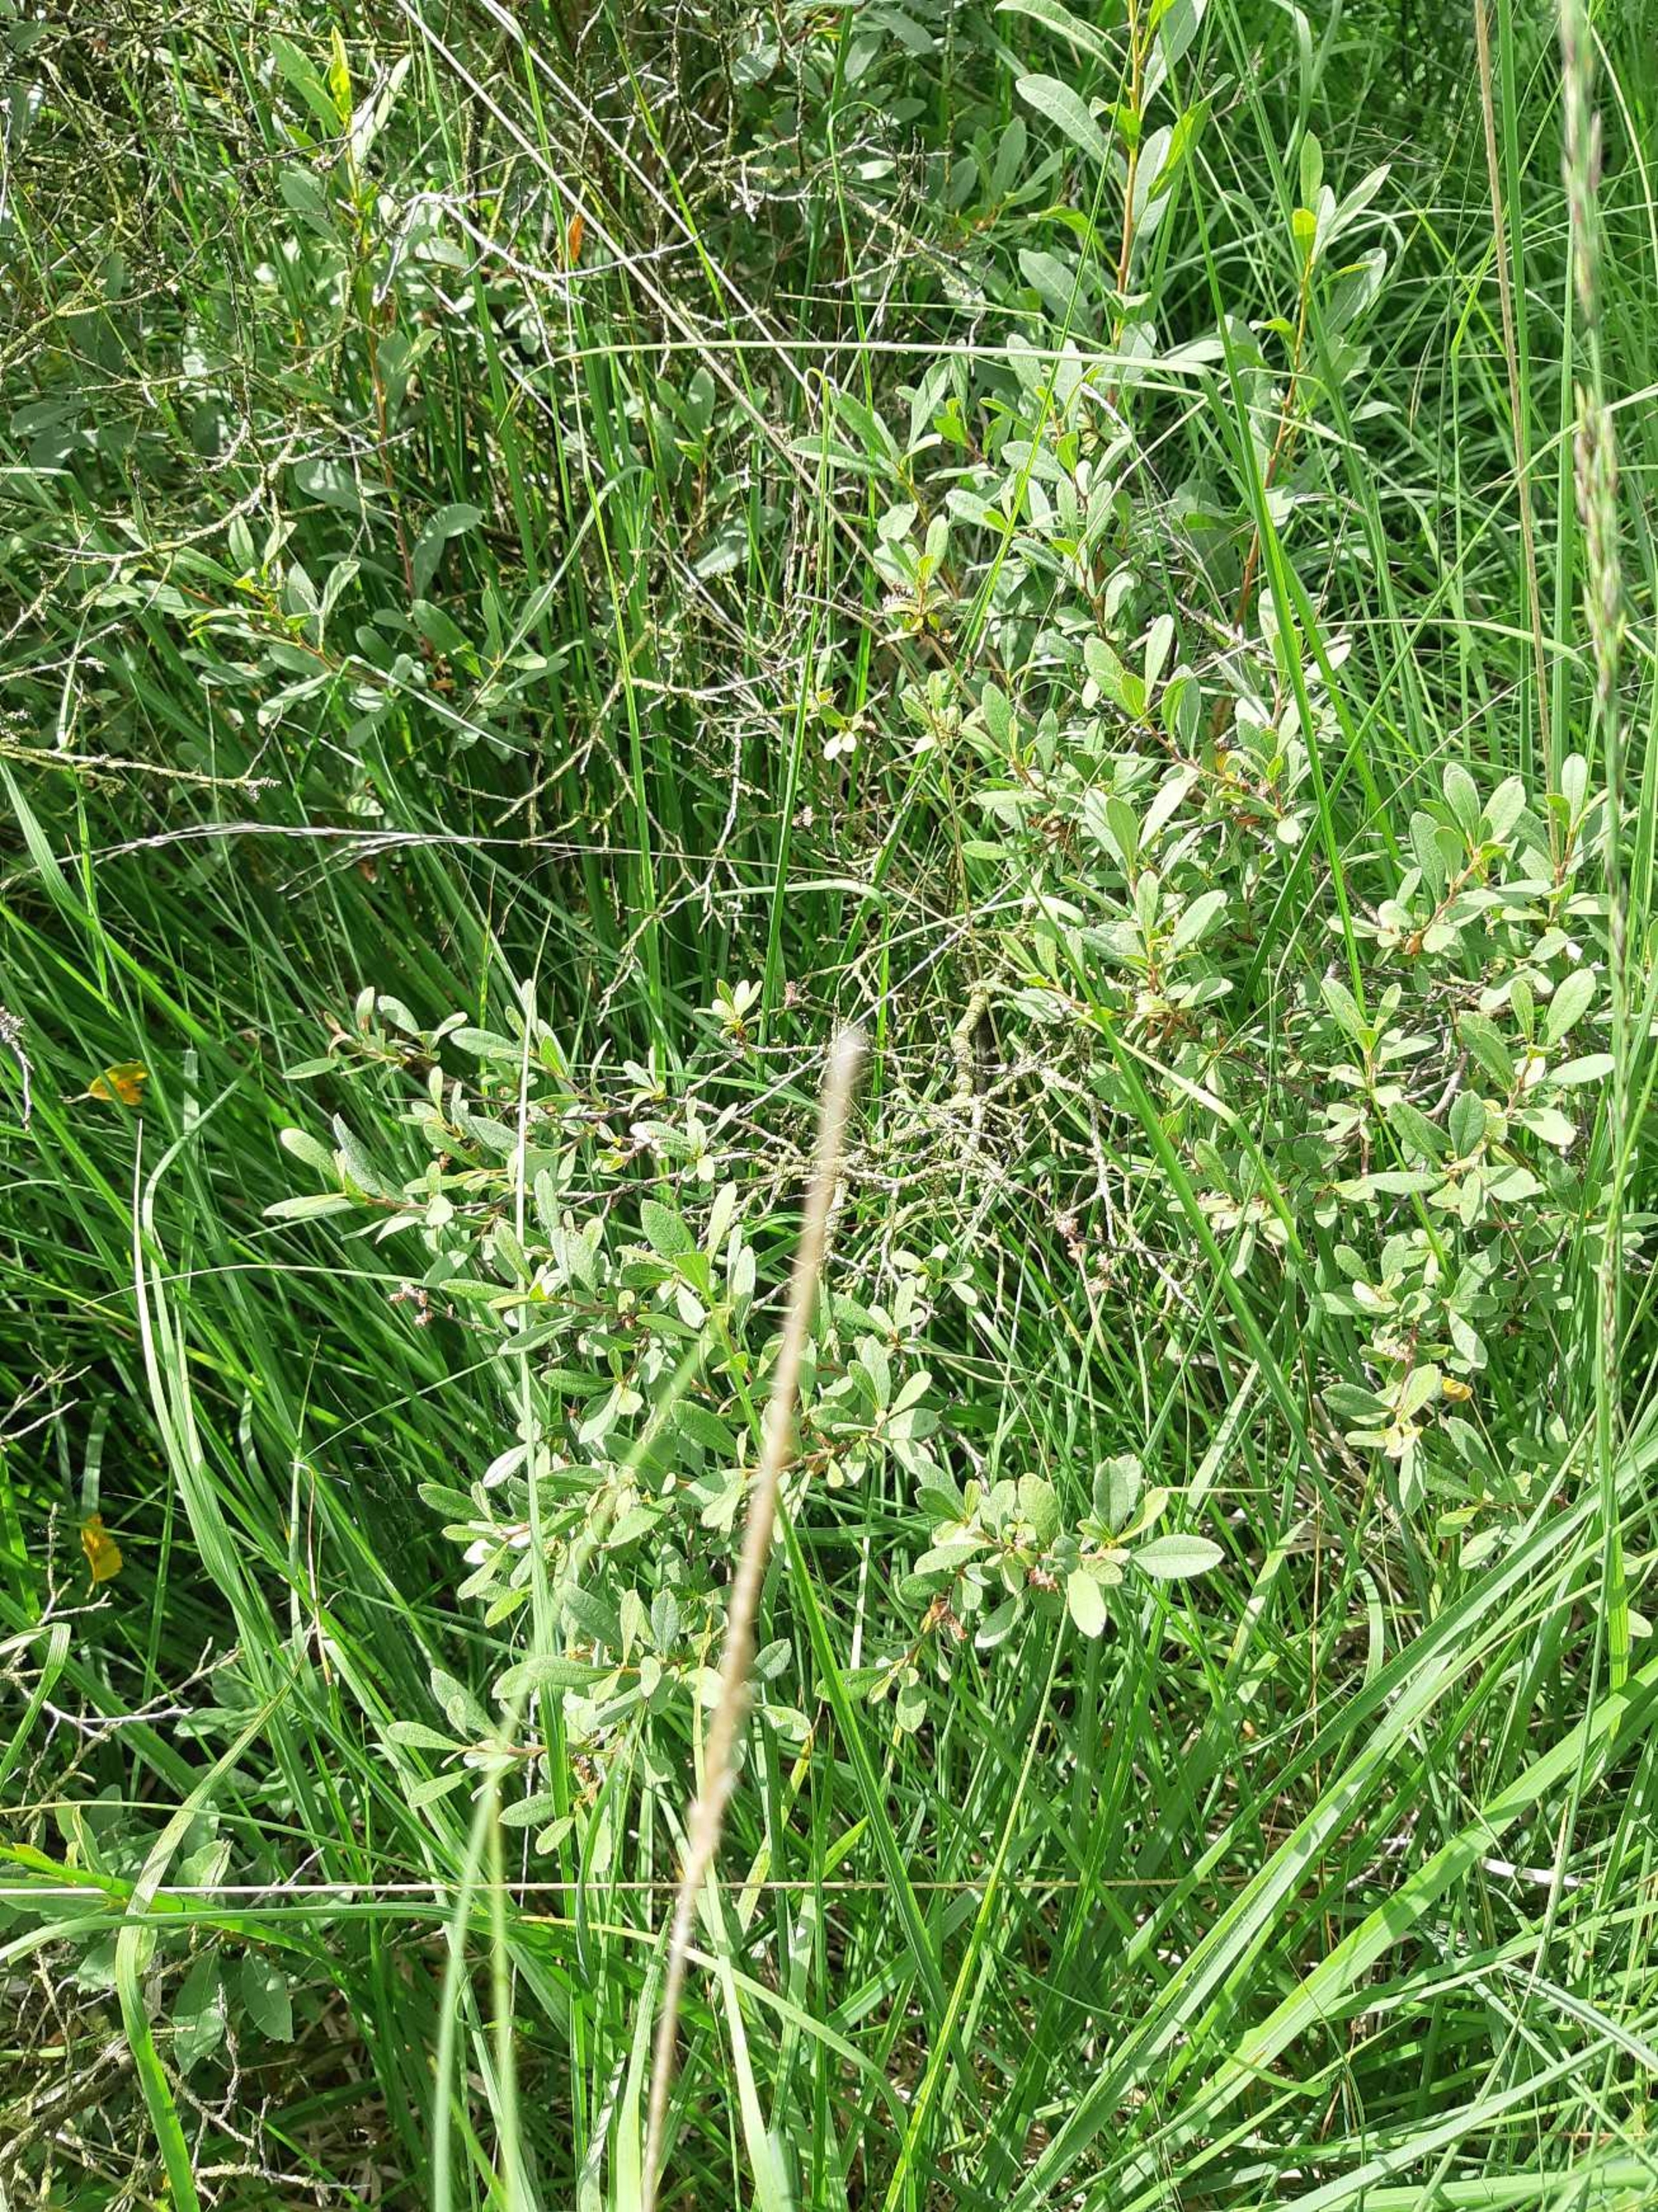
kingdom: Plantae
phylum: Tracheophyta
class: Magnoliopsida
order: Fagales
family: Myricaceae
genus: Myrica
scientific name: Myrica gale
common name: Pors
